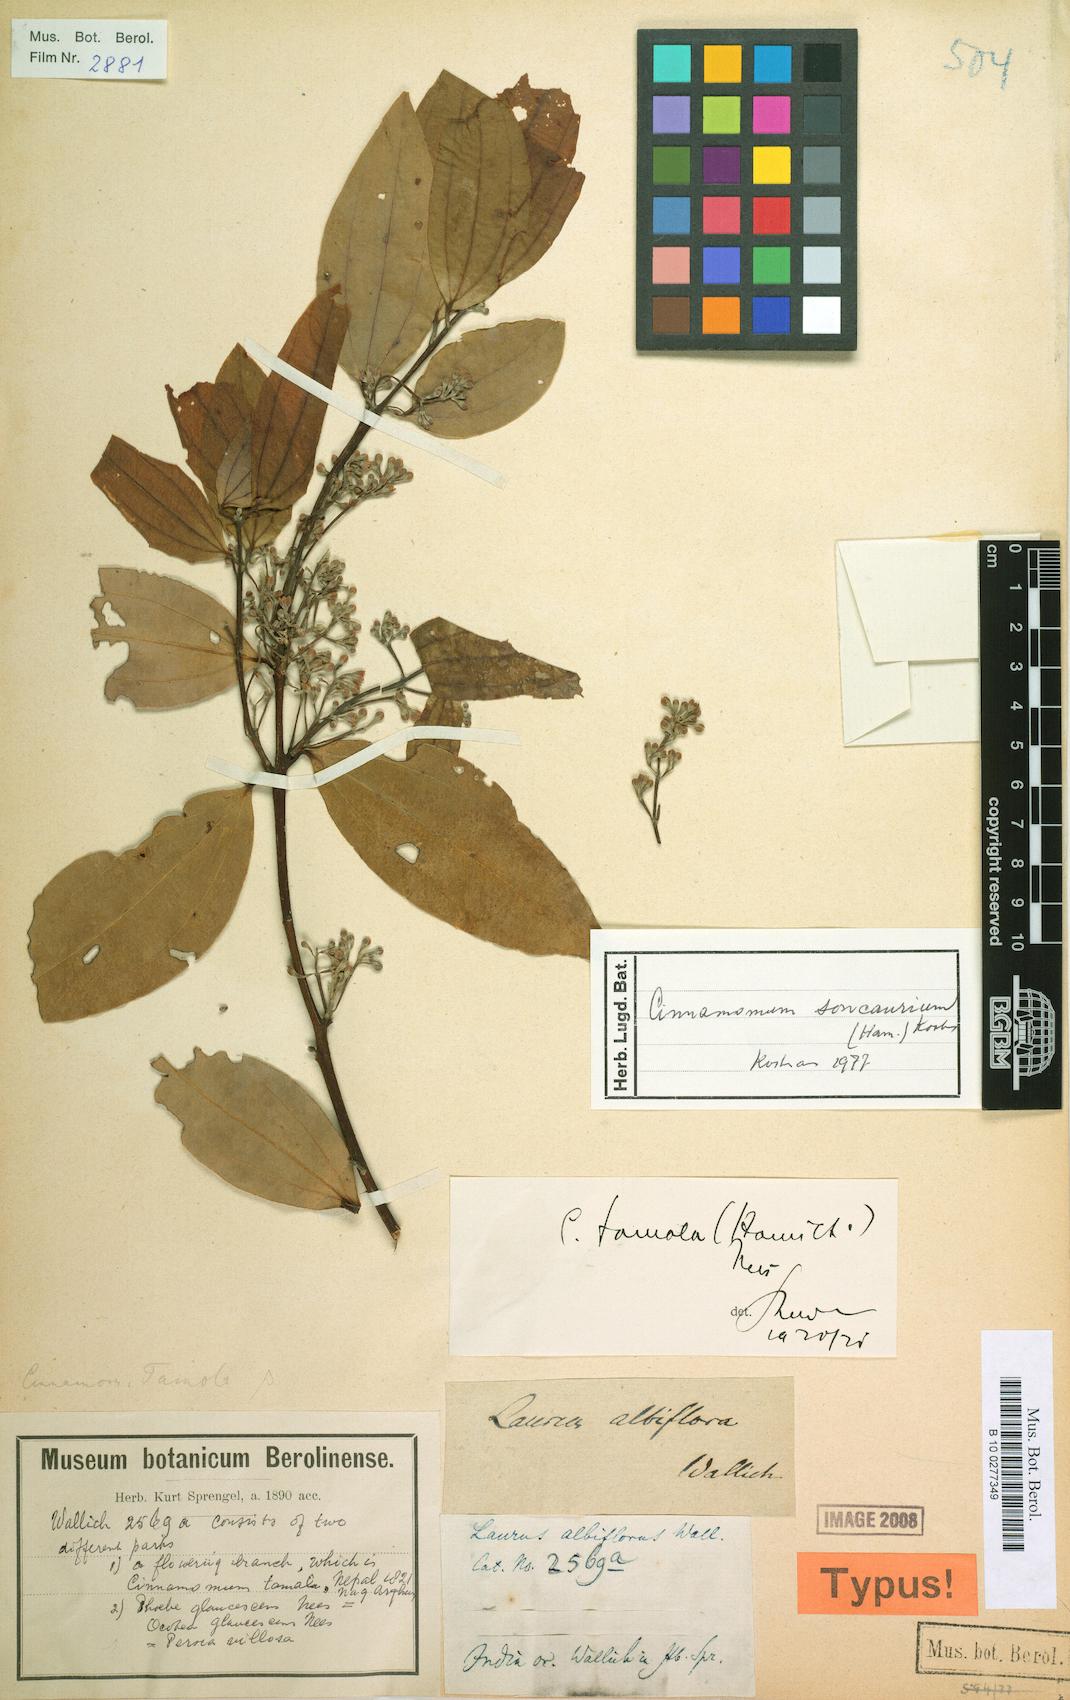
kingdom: Plantae
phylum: Tracheophyta
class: Magnoliopsida
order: Laurales
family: Lauraceae
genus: Cinnamomum
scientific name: Cinnamomum bejolghota
